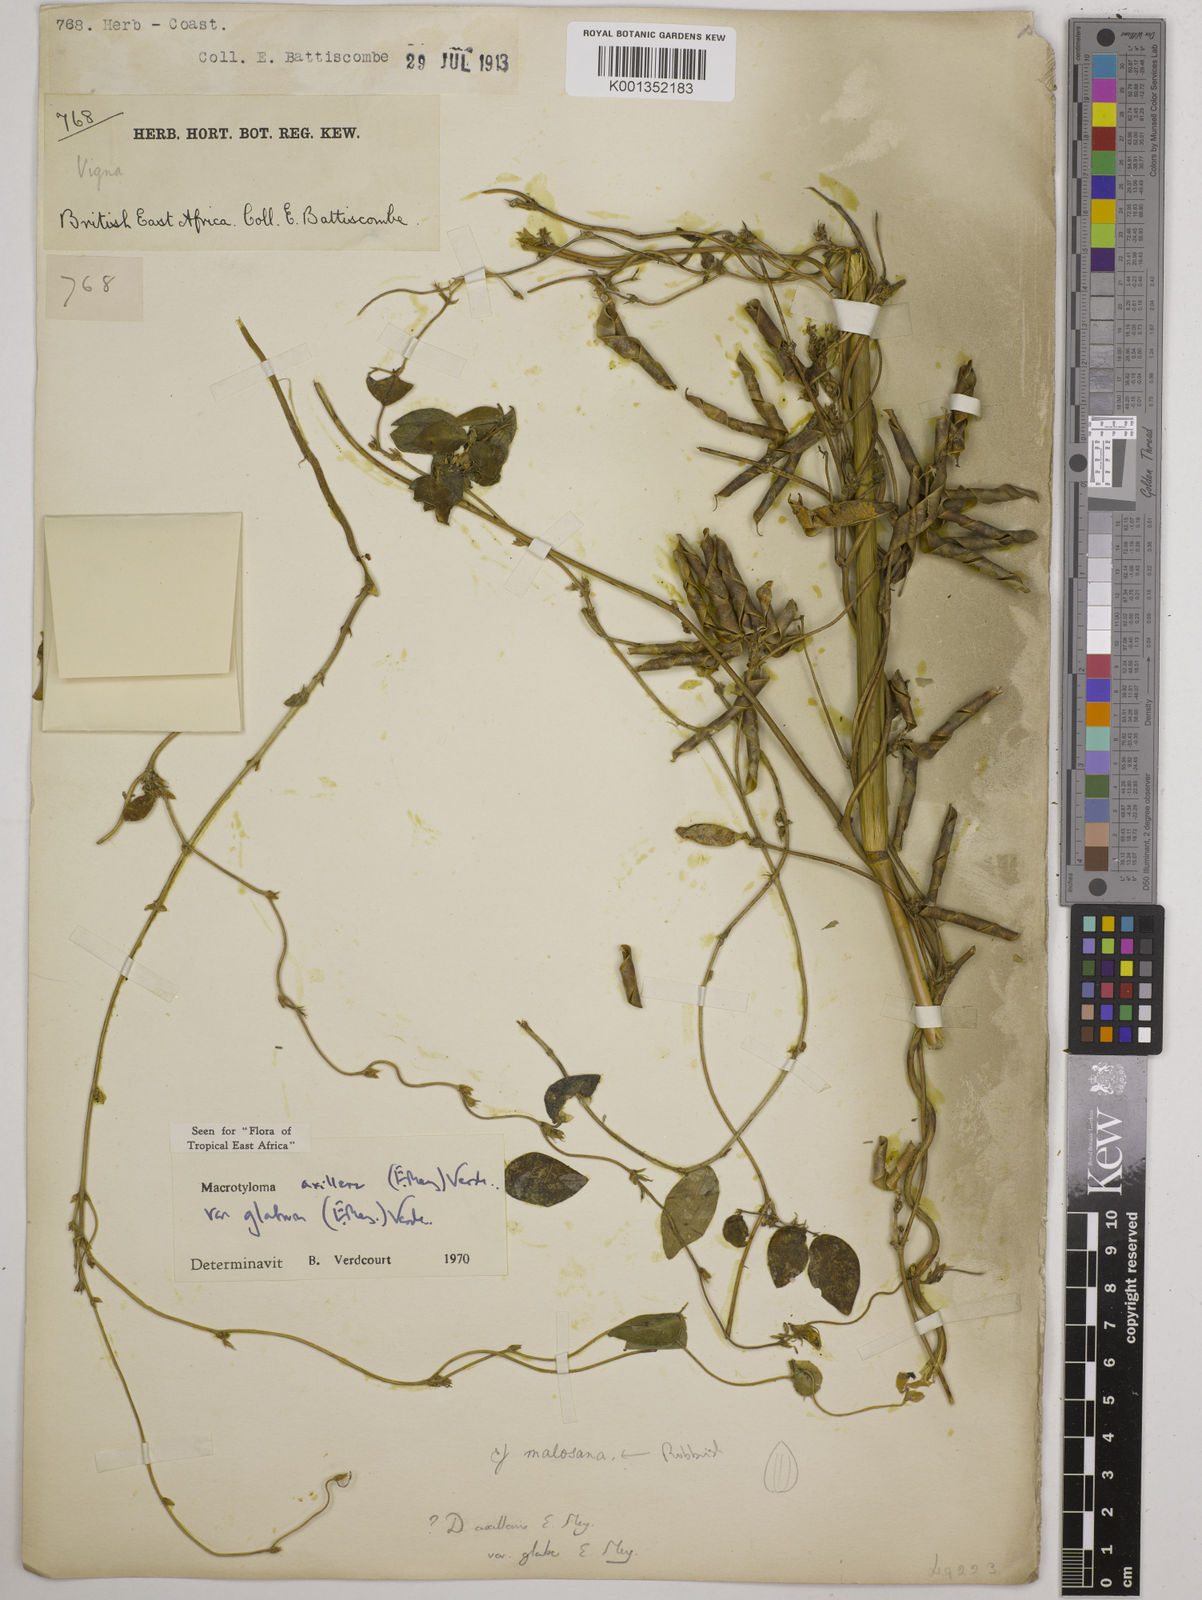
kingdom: Plantae
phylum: Tracheophyta
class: Magnoliopsida
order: Fabales
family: Fabaceae
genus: Macrotyloma
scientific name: Macrotyloma
